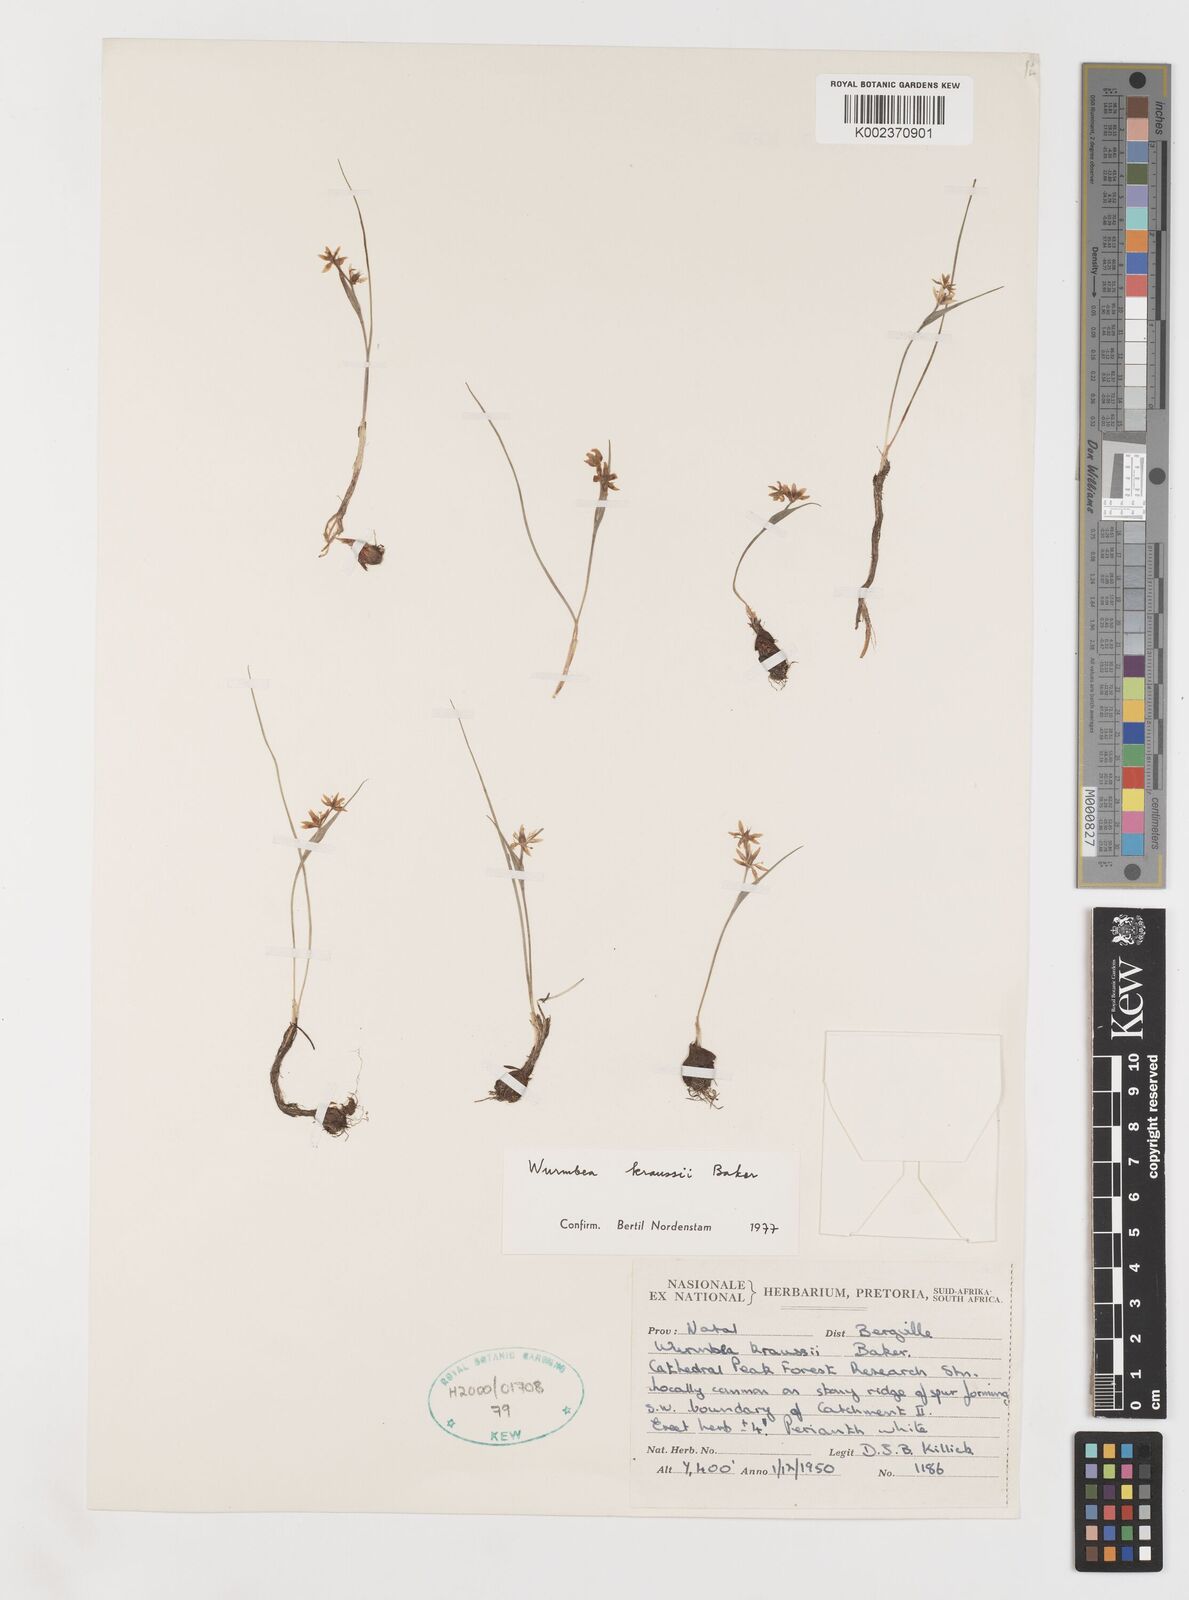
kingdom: Plantae
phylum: Tracheophyta
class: Liliopsida
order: Liliales
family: Colchicaceae
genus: Wurmbea
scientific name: Wurmbea kraussii
